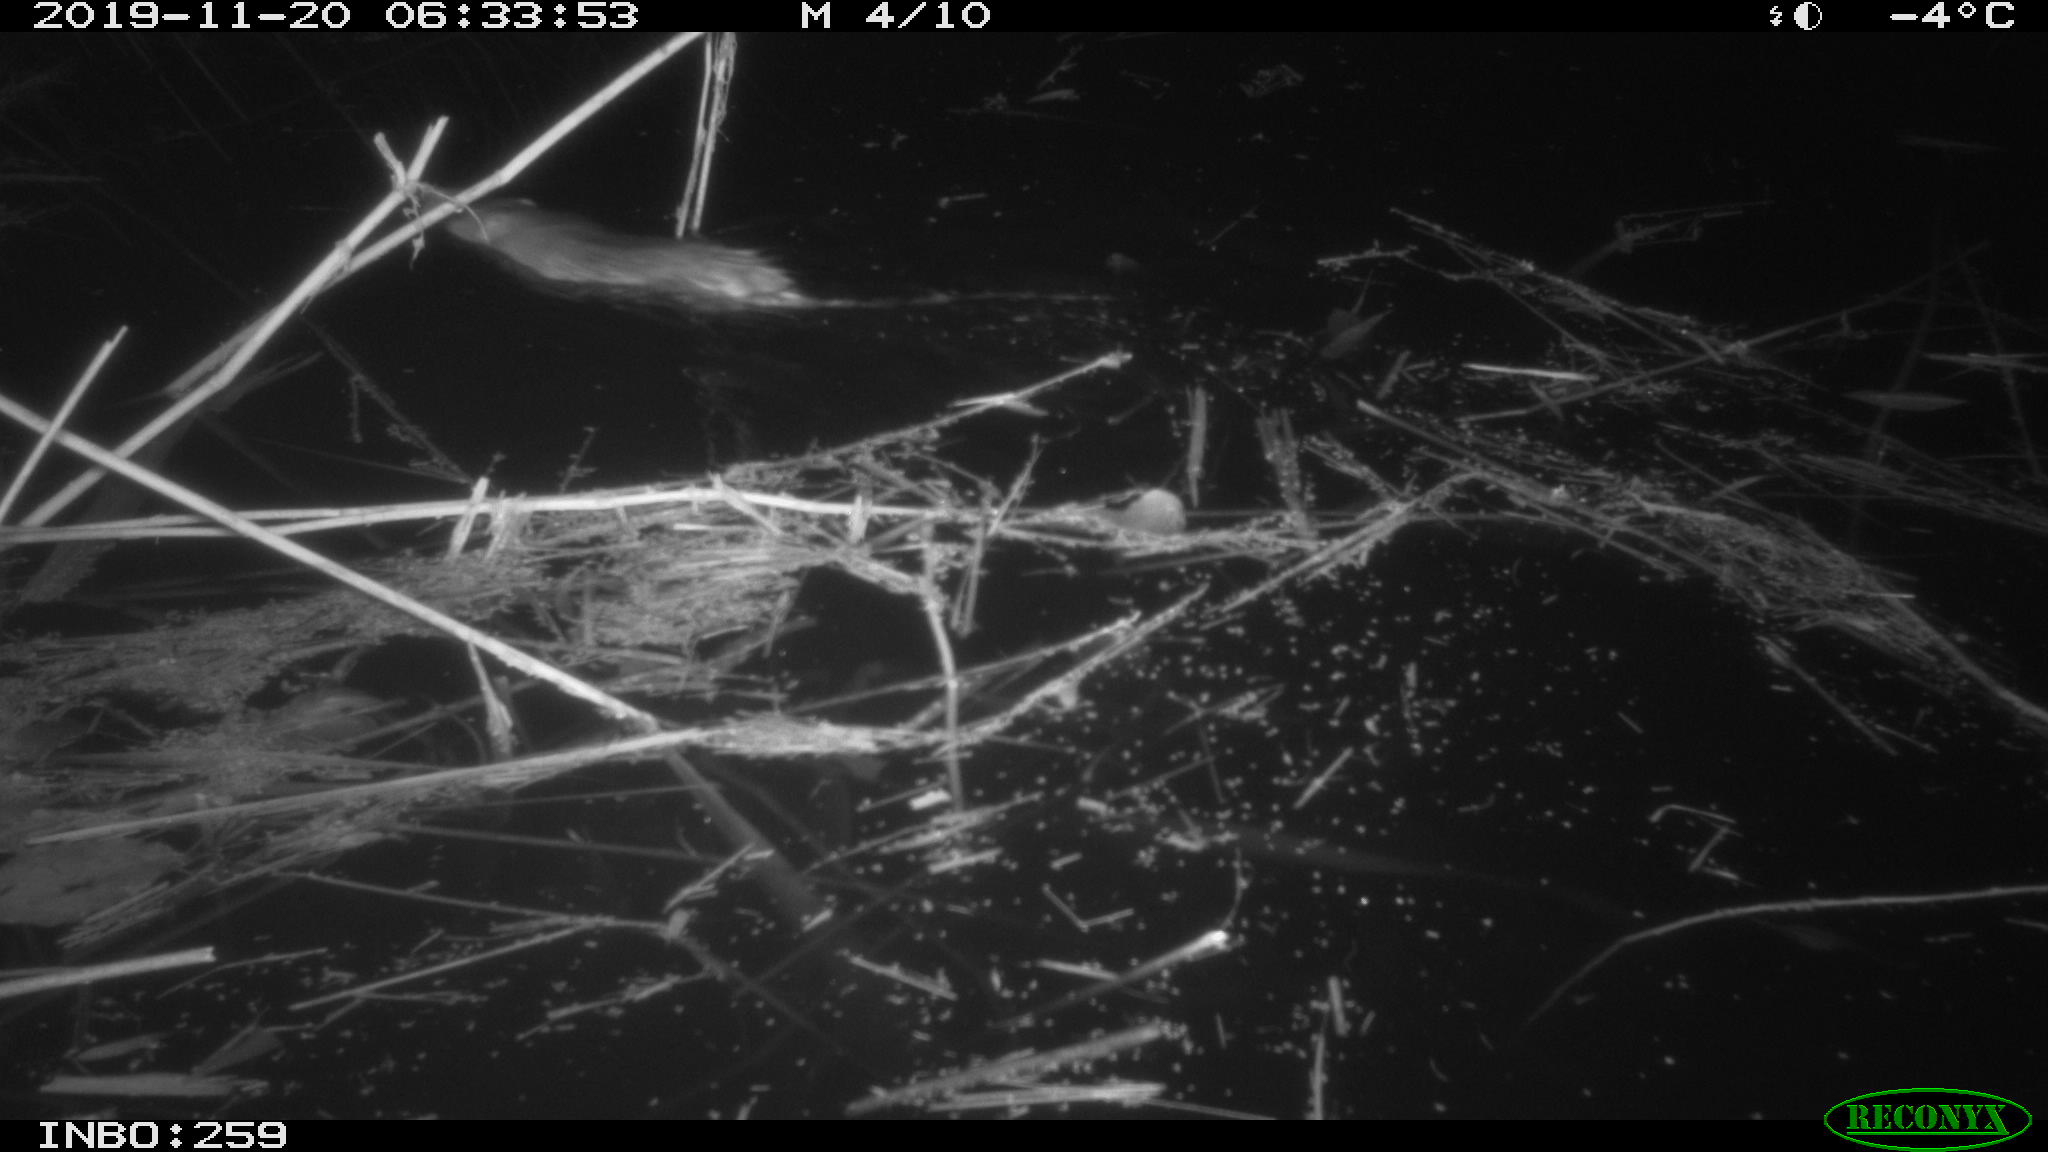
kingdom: Animalia
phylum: Chordata
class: Mammalia
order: Rodentia
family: Muridae
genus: Rattus
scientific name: Rattus norvegicus
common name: Brown rat
